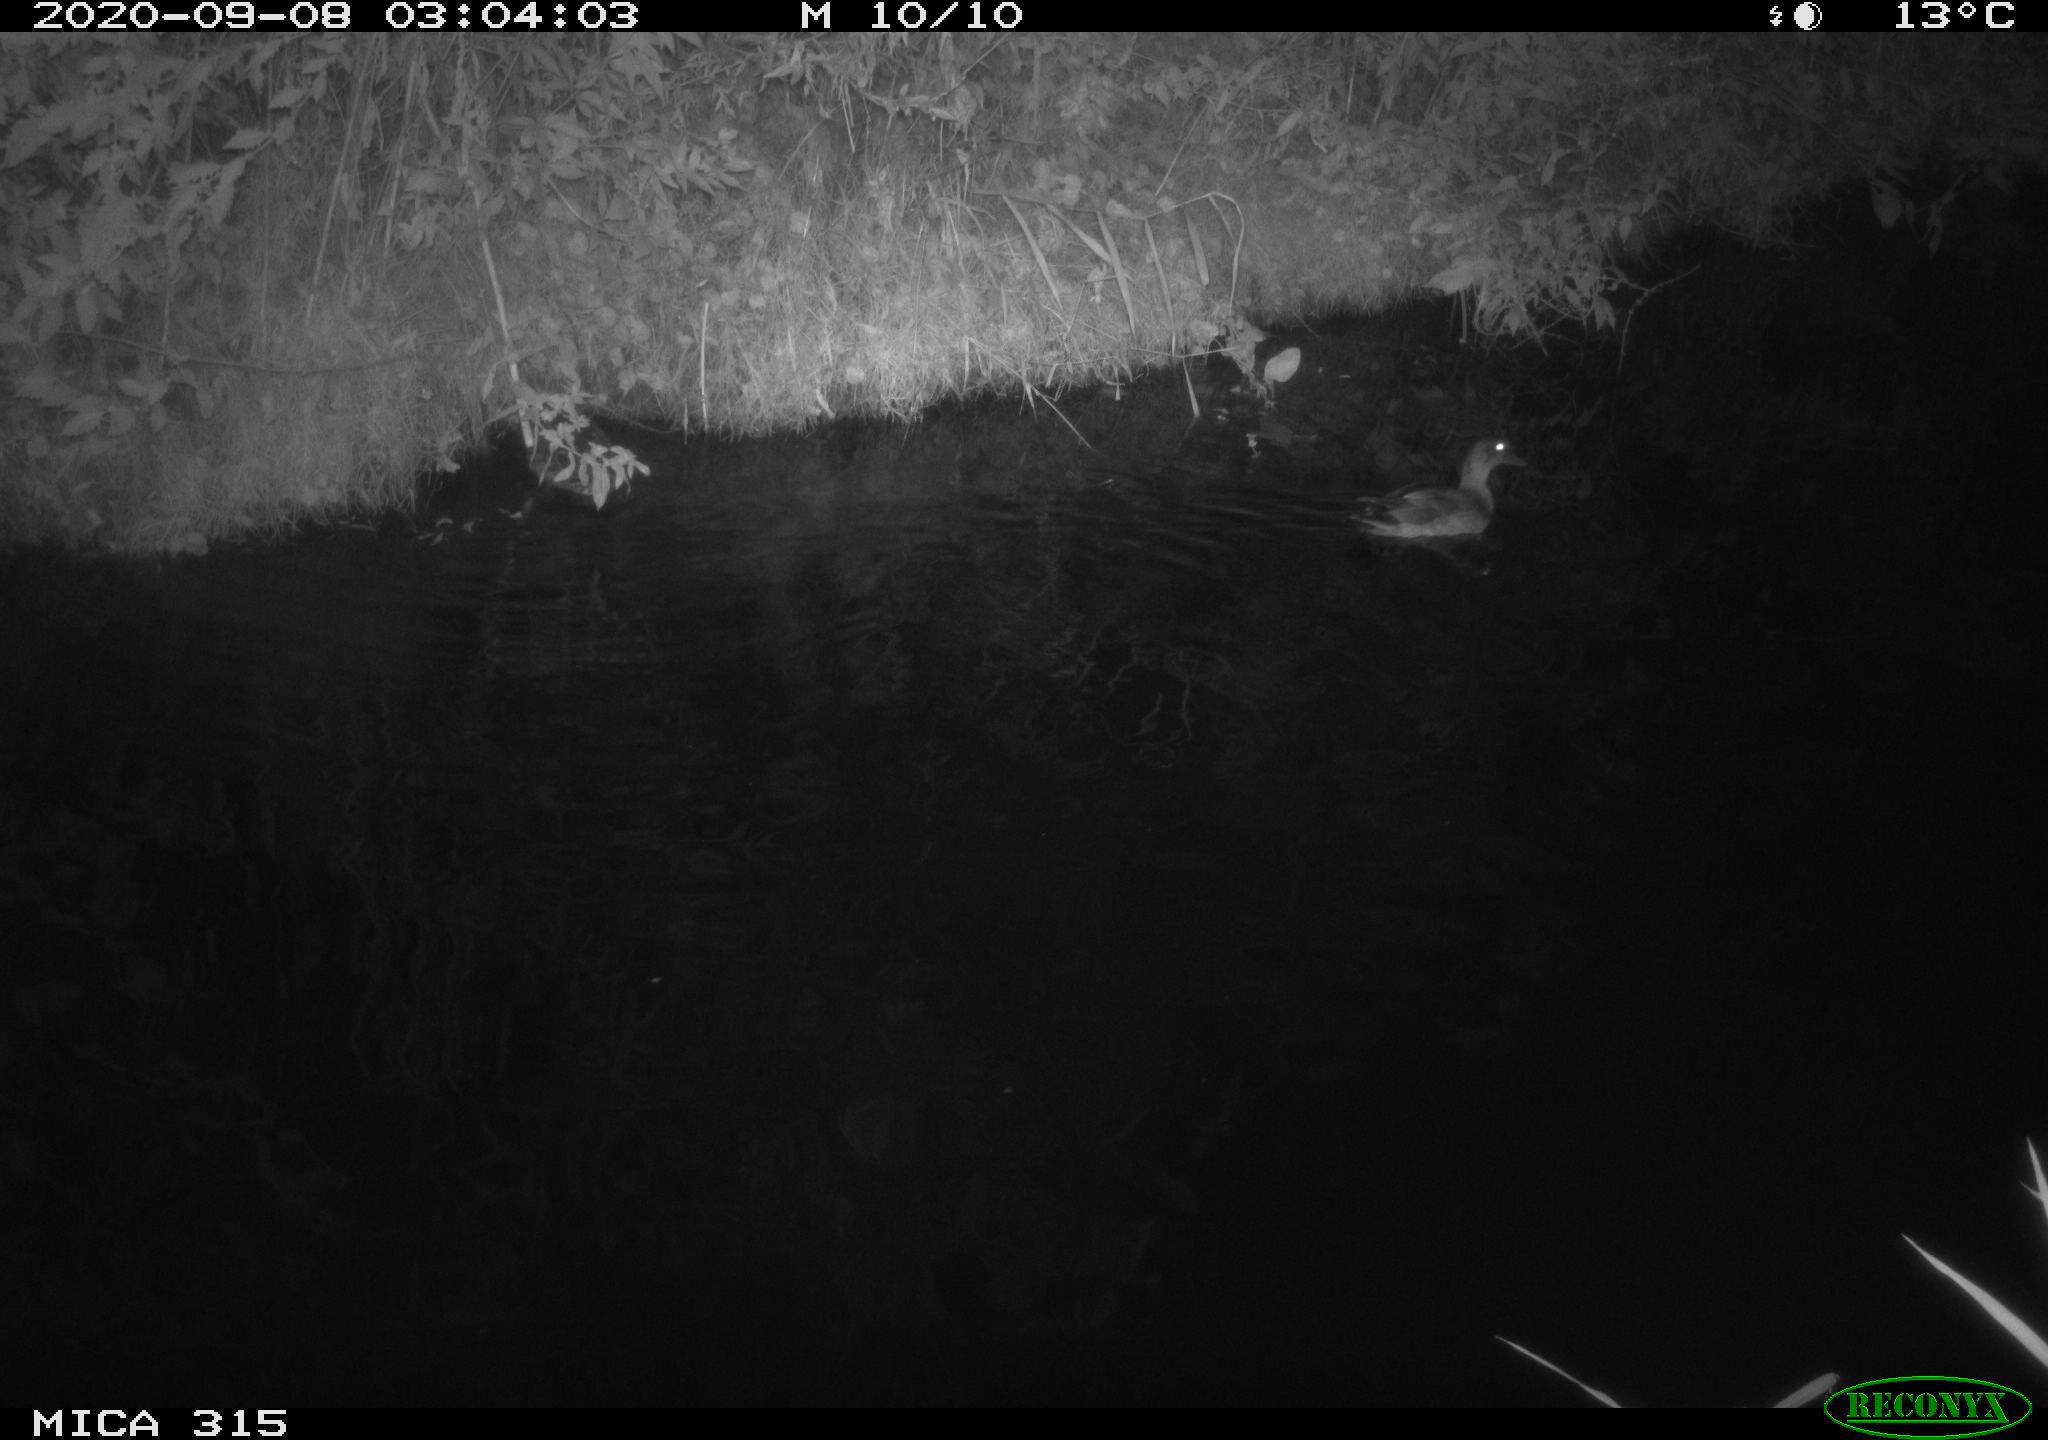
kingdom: Animalia
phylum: Chordata
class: Aves
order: Anseriformes
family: Anatidae
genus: Anas
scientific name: Anas platyrhynchos
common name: Mallard
